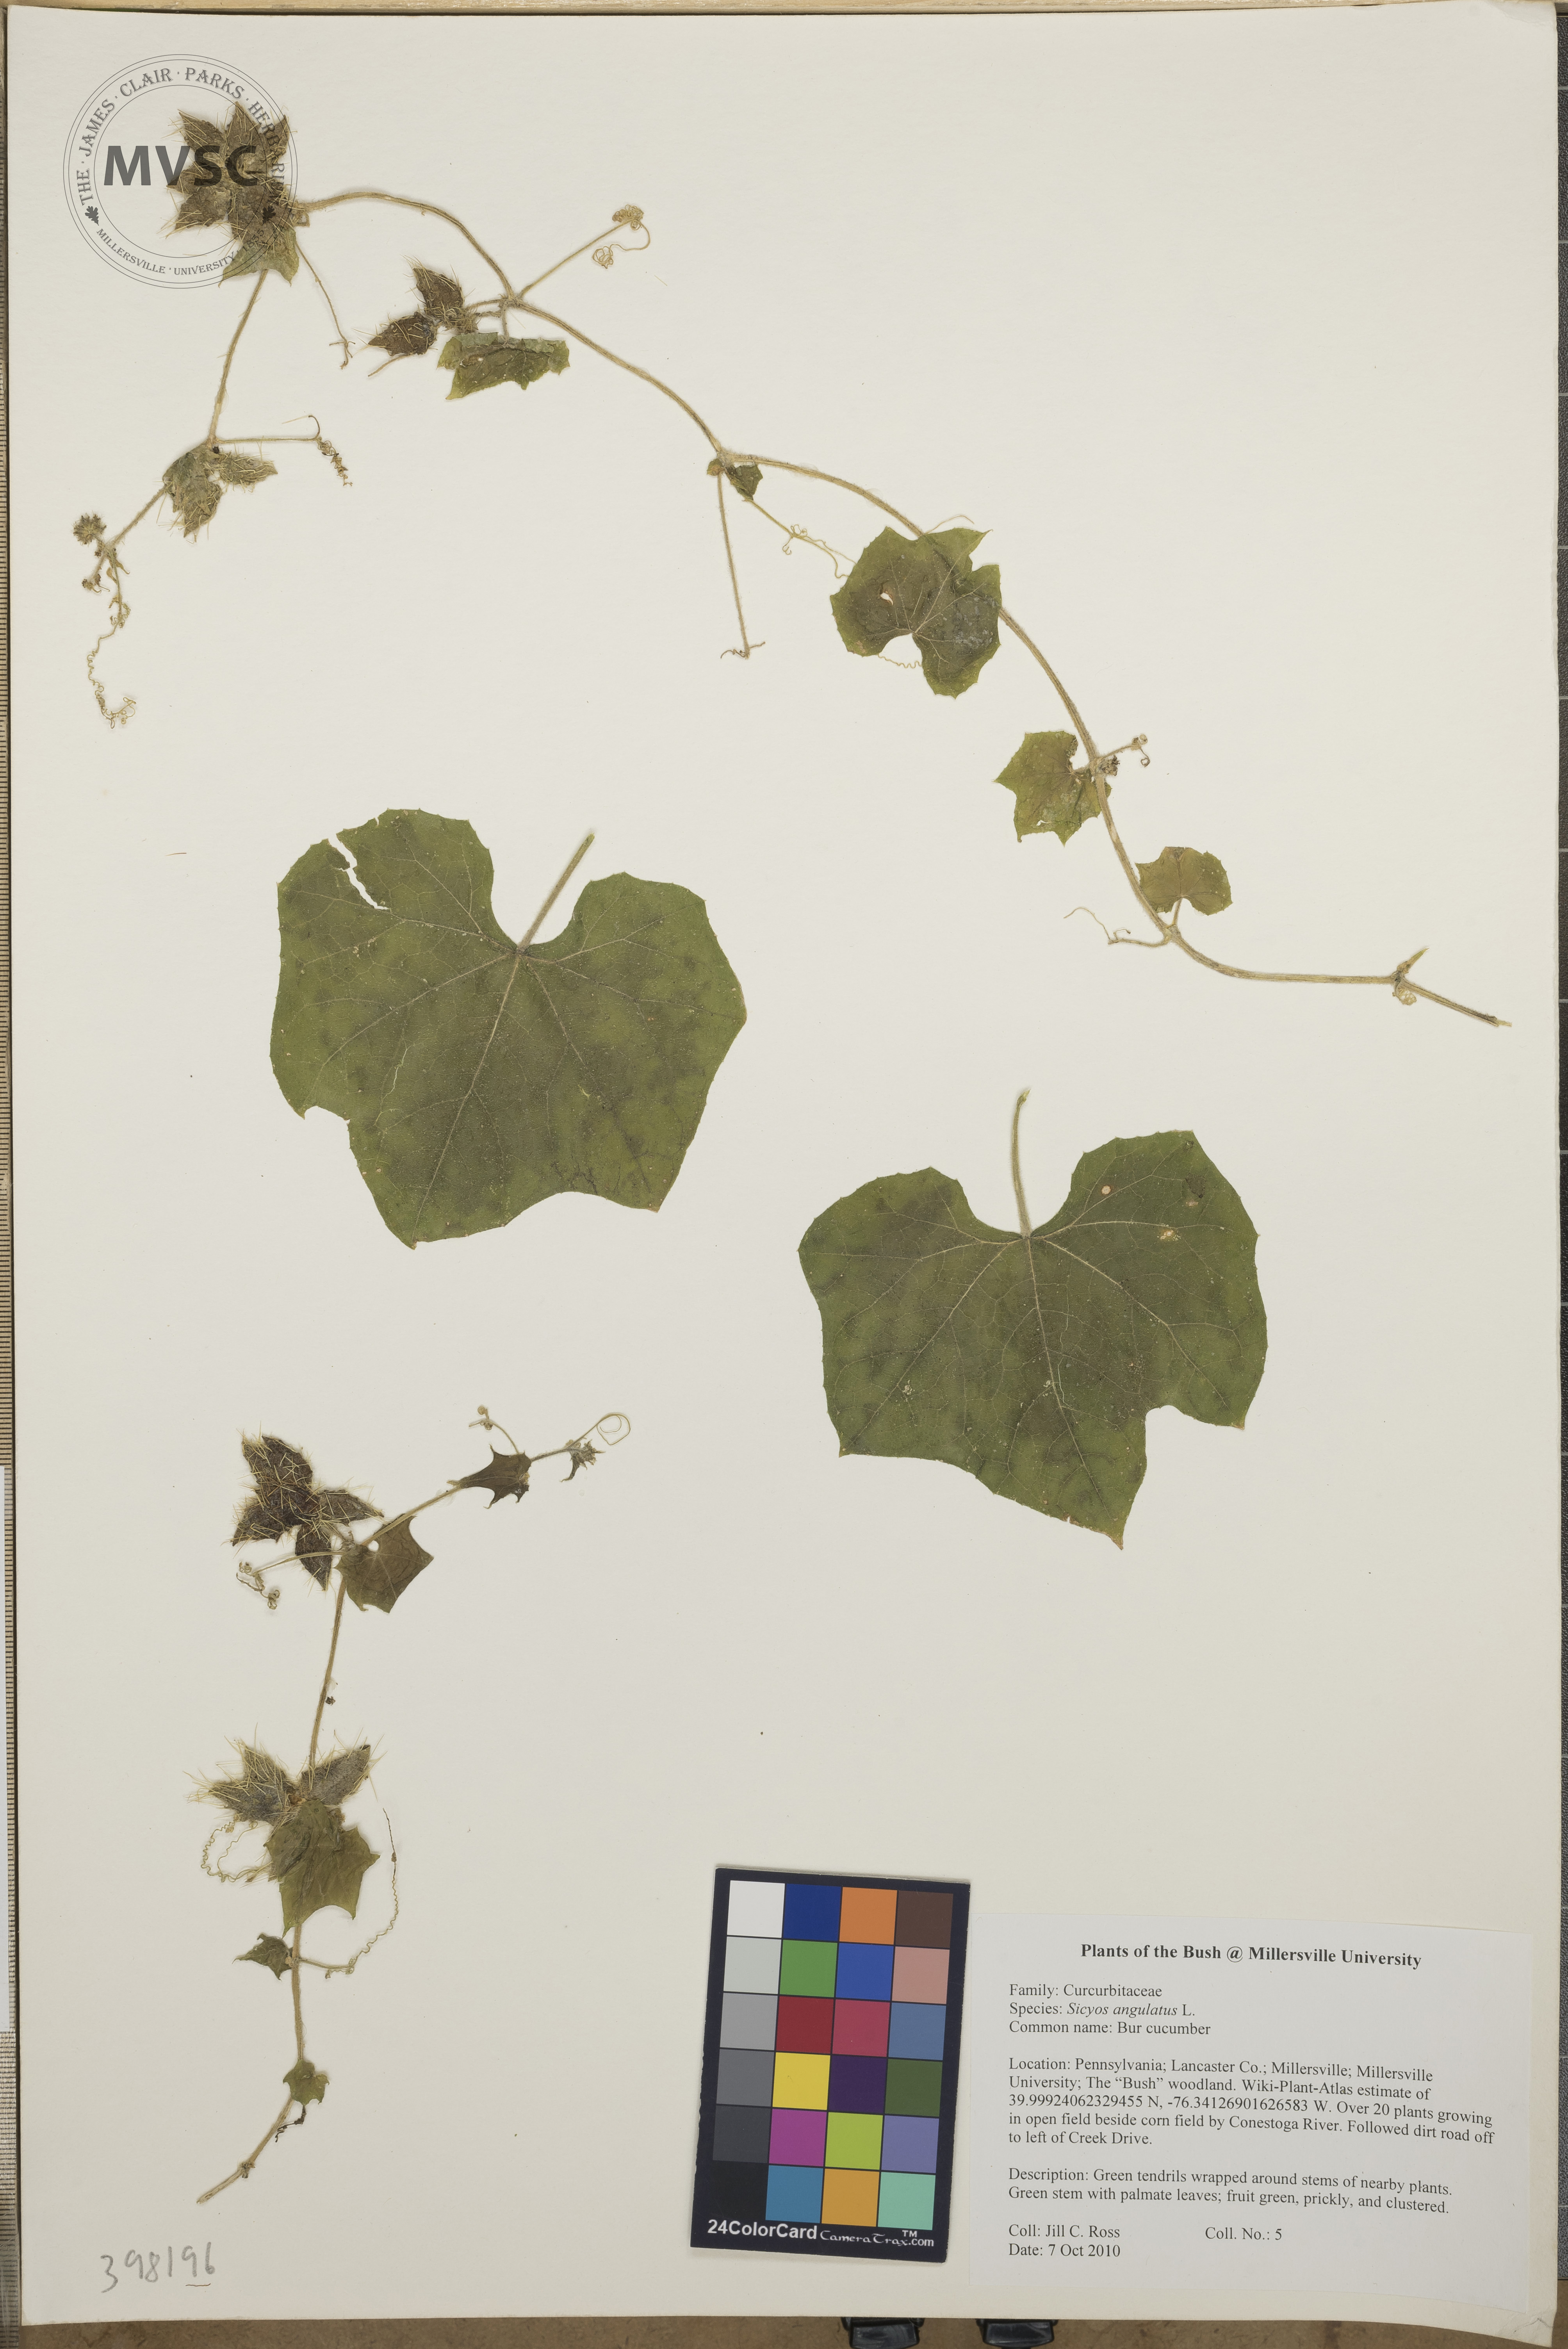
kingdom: Plantae
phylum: Tracheophyta
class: Magnoliopsida
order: Cucurbitales
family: Cucurbitaceae
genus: Sicyos
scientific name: Sicyos angulatus
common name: Bur cucumber
